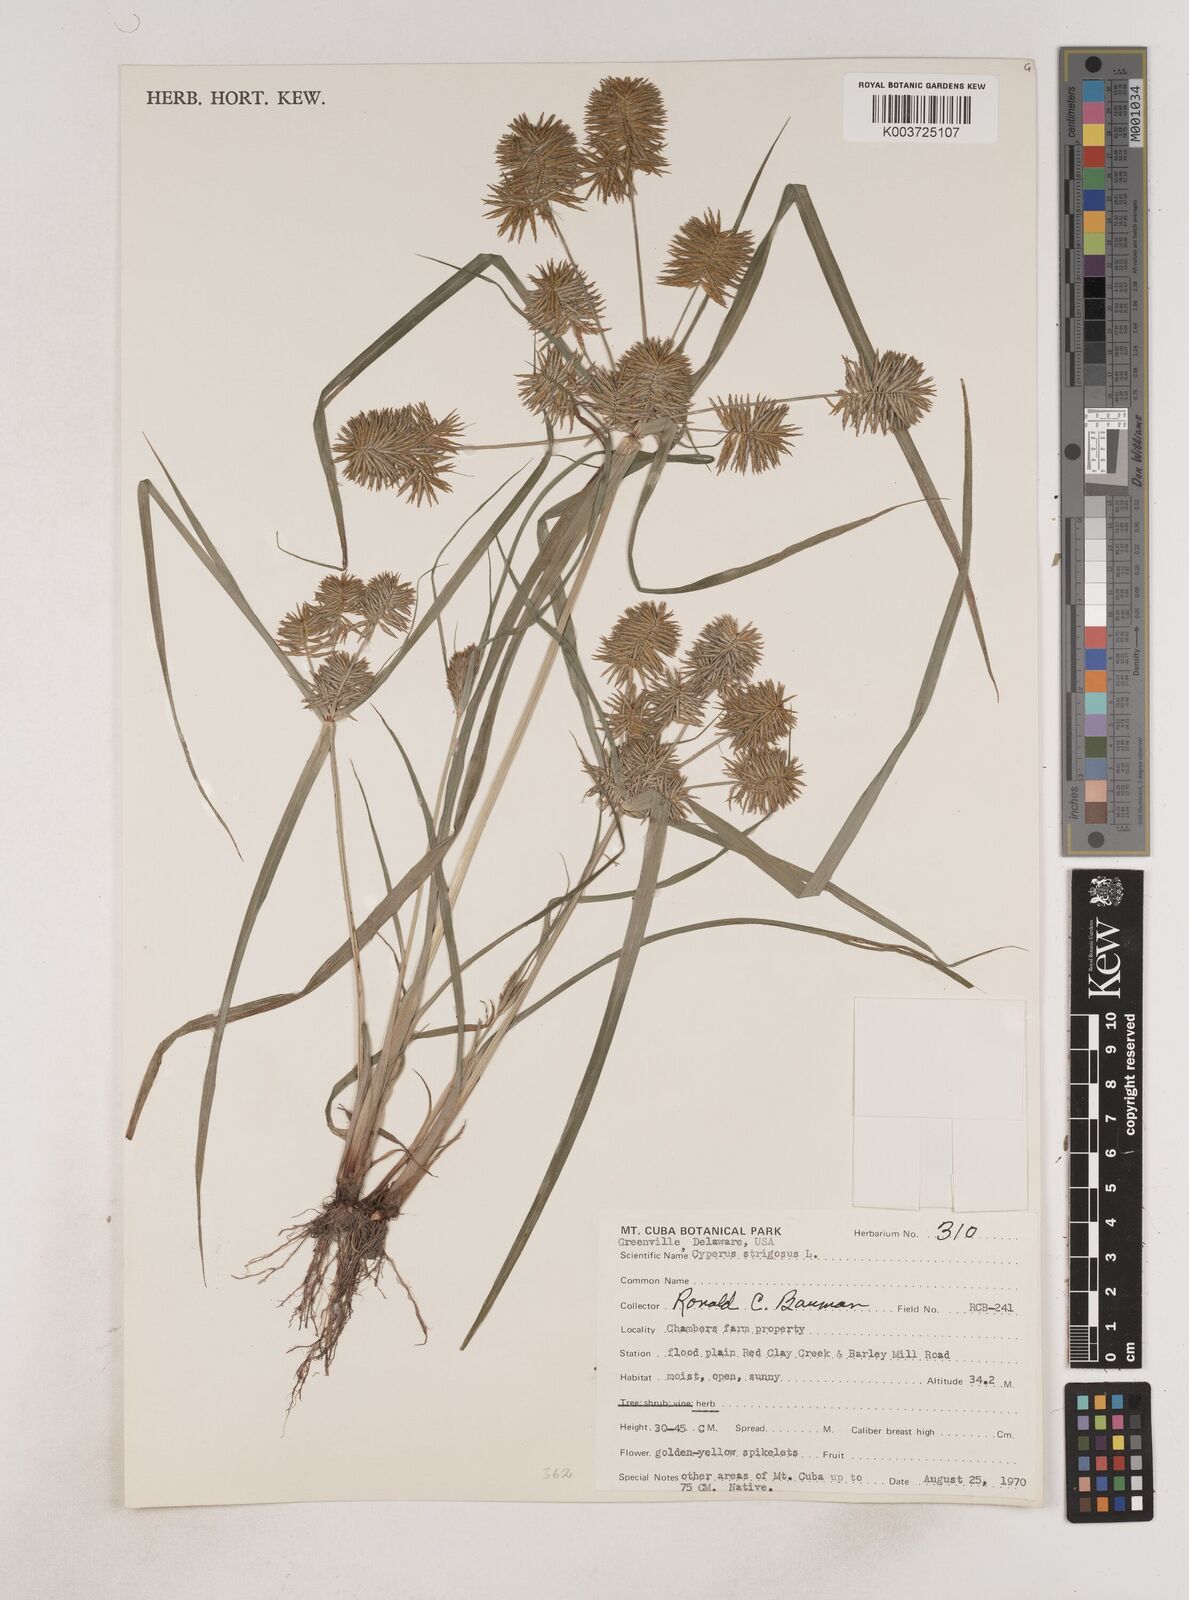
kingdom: Plantae
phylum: Tracheophyta
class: Liliopsida
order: Poales
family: Cyperaceae
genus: Cyperus
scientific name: Cyperus strigosus
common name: False nutsedge
